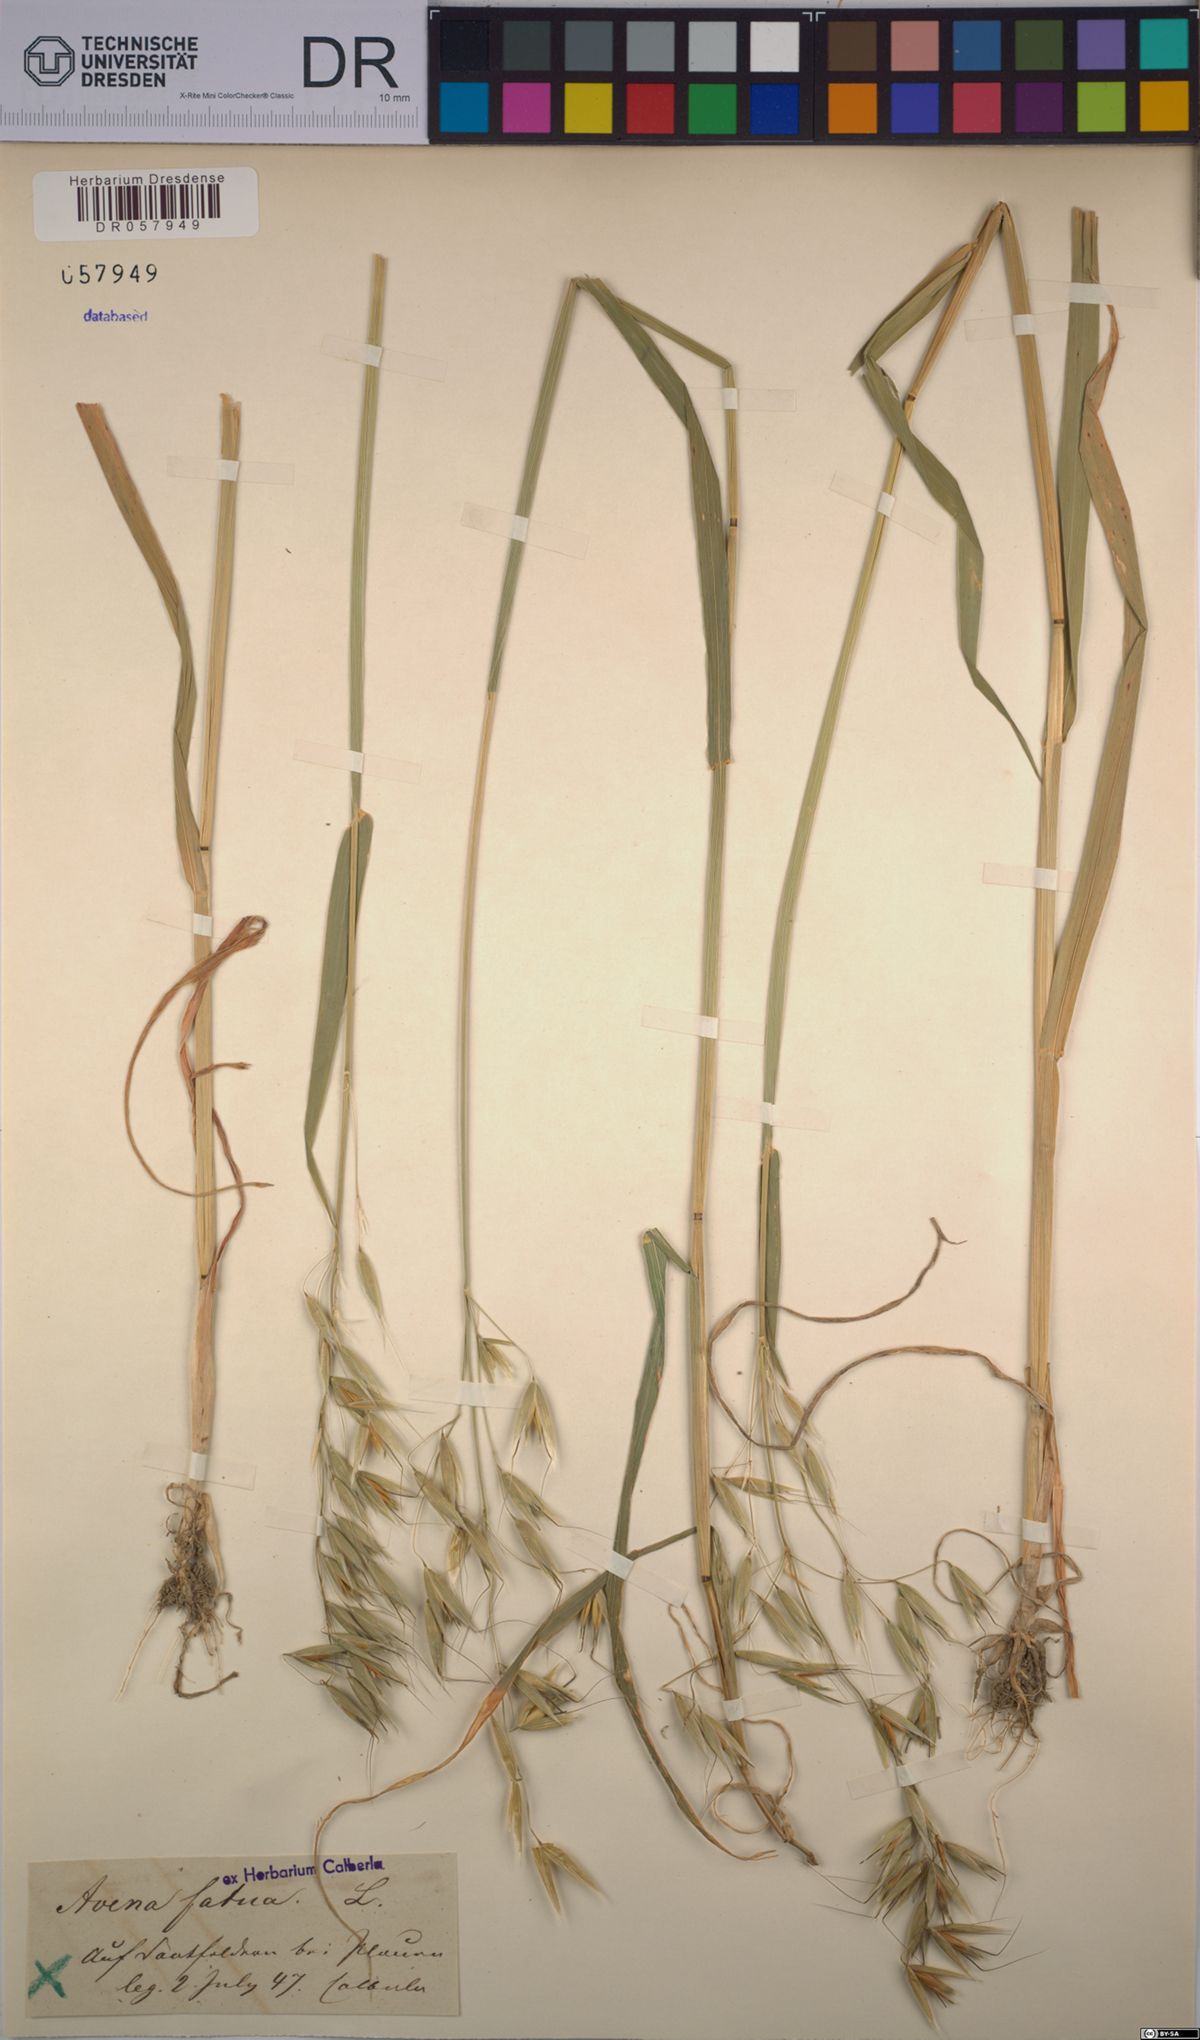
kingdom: Plantae
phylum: Tracheophyta
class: Liliopsida
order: Poales
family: Poaceae
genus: Avena
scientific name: Avena fatua
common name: Wild oat
